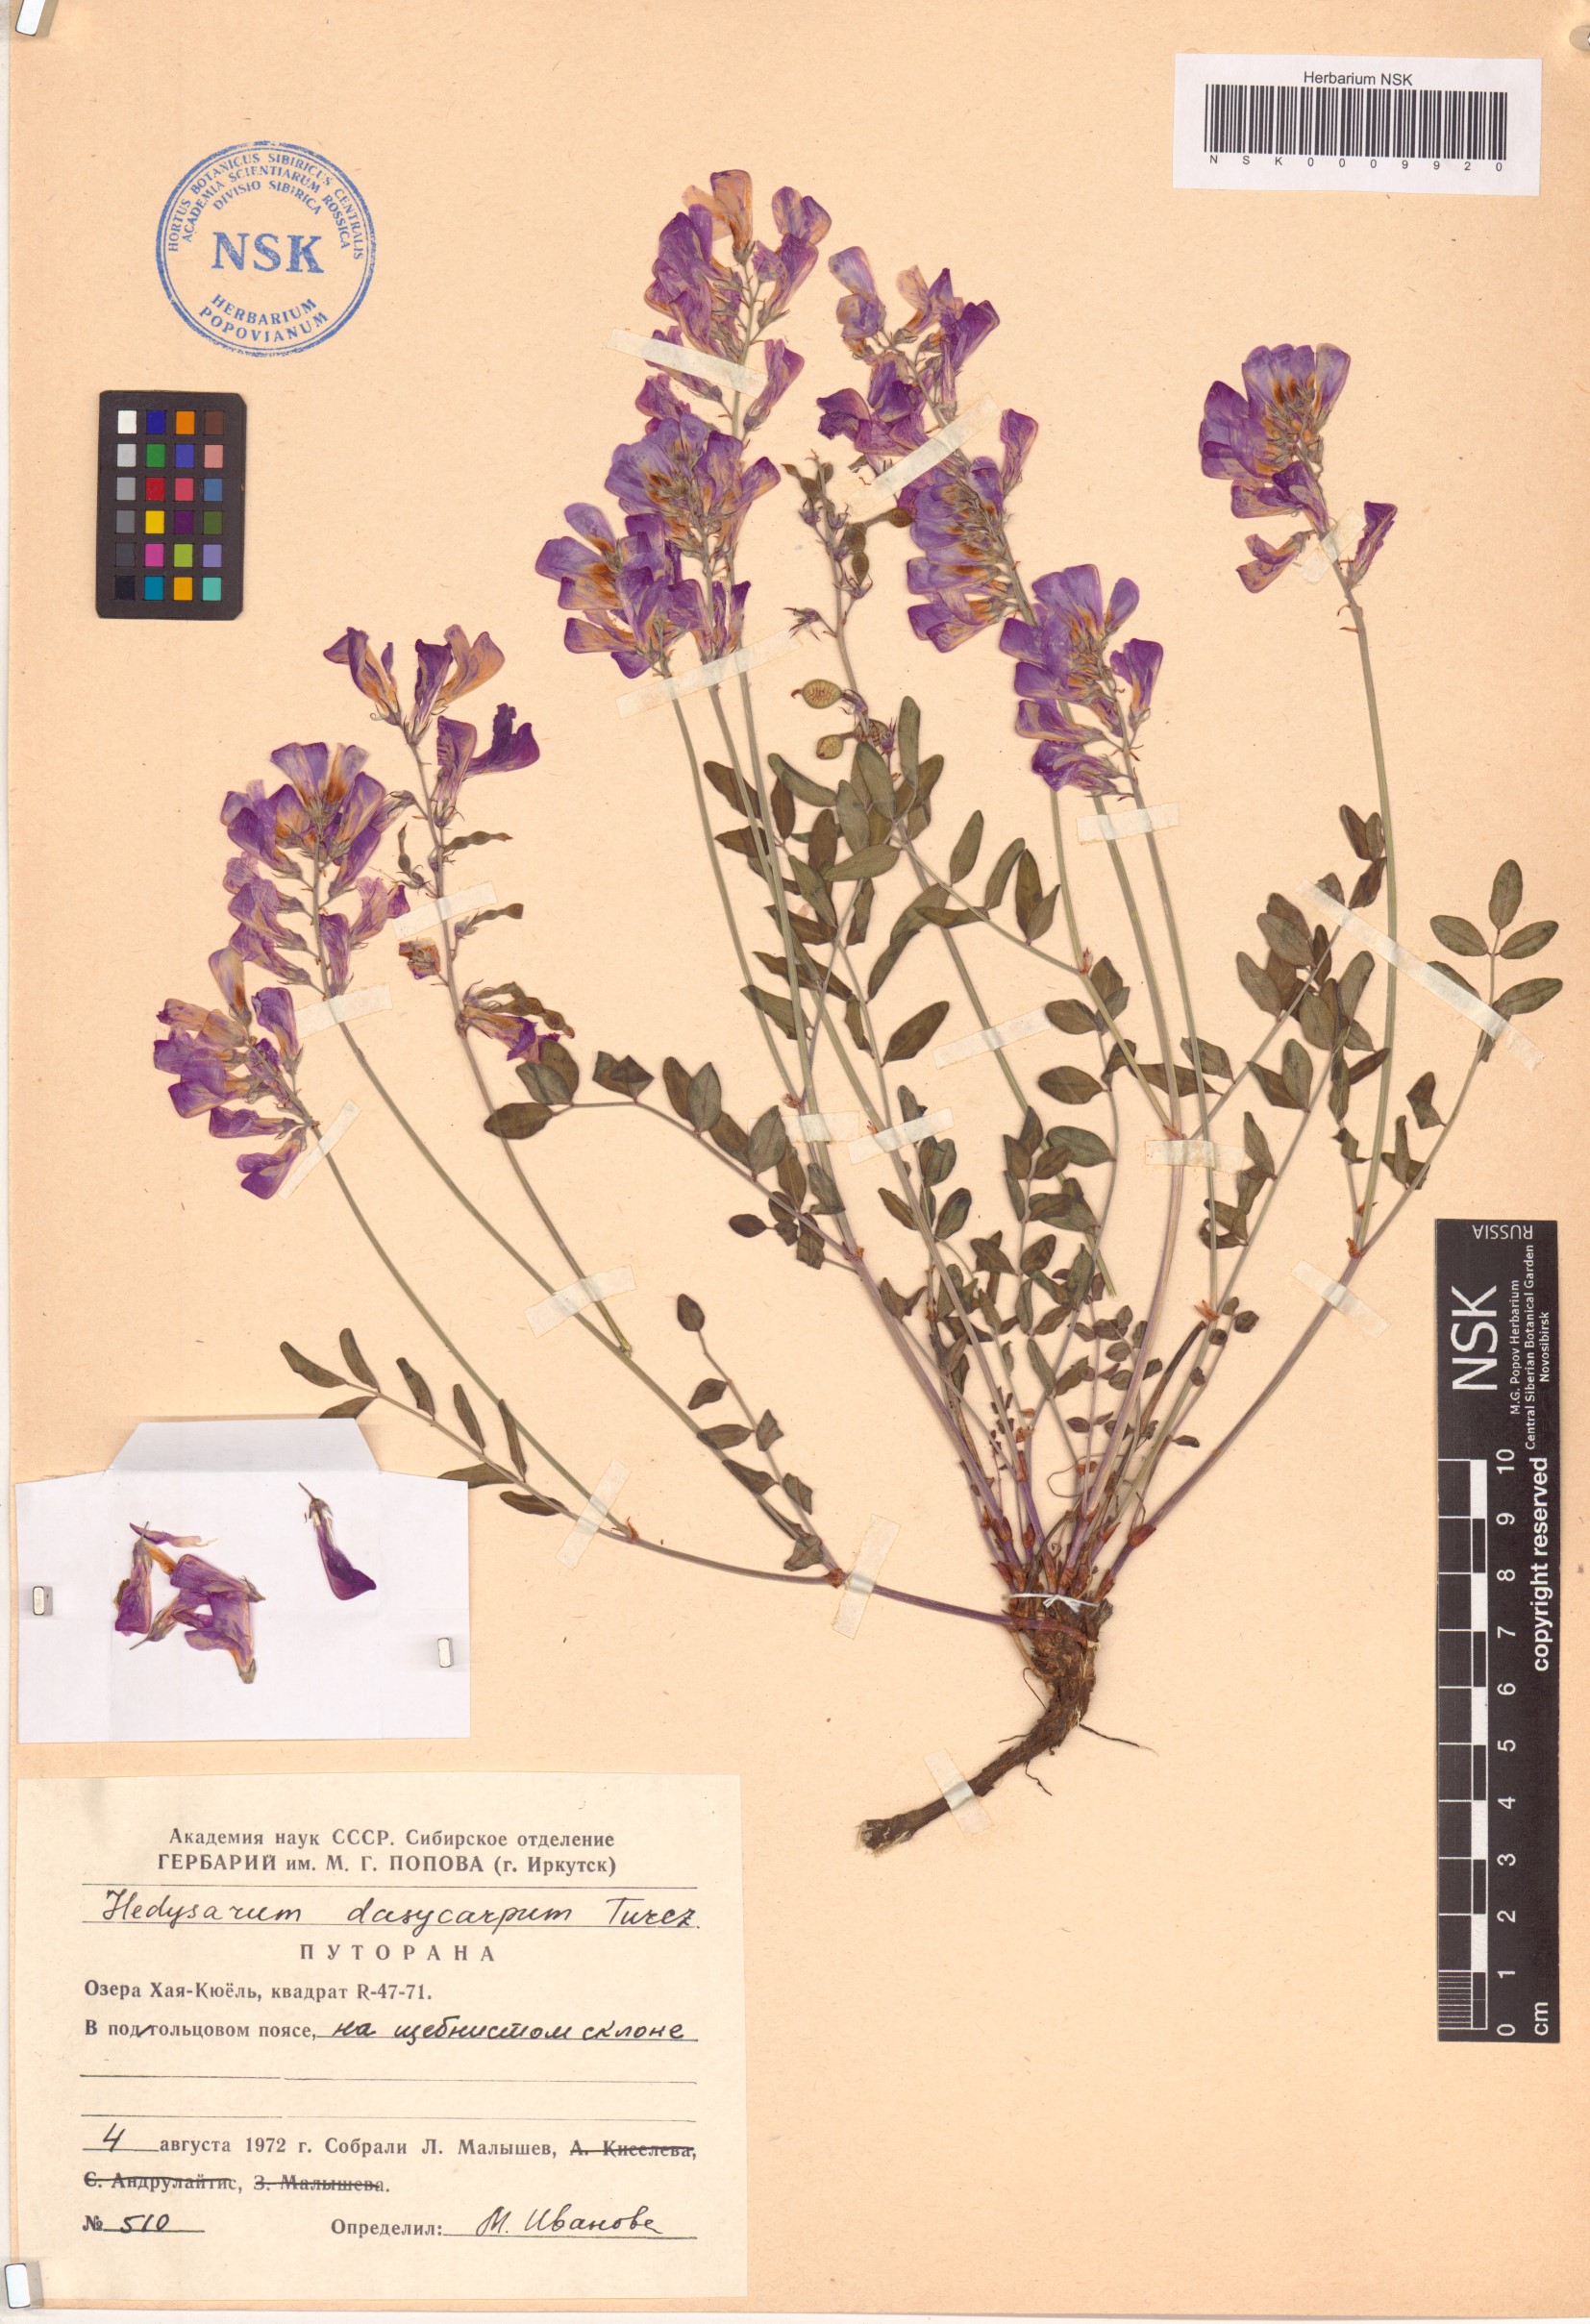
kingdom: Plantae
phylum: Tracheophyta
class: Magnoliopsida
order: Fabales
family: Fabaceae
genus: Hedysarum
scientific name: Hedysarum dasycarpum
